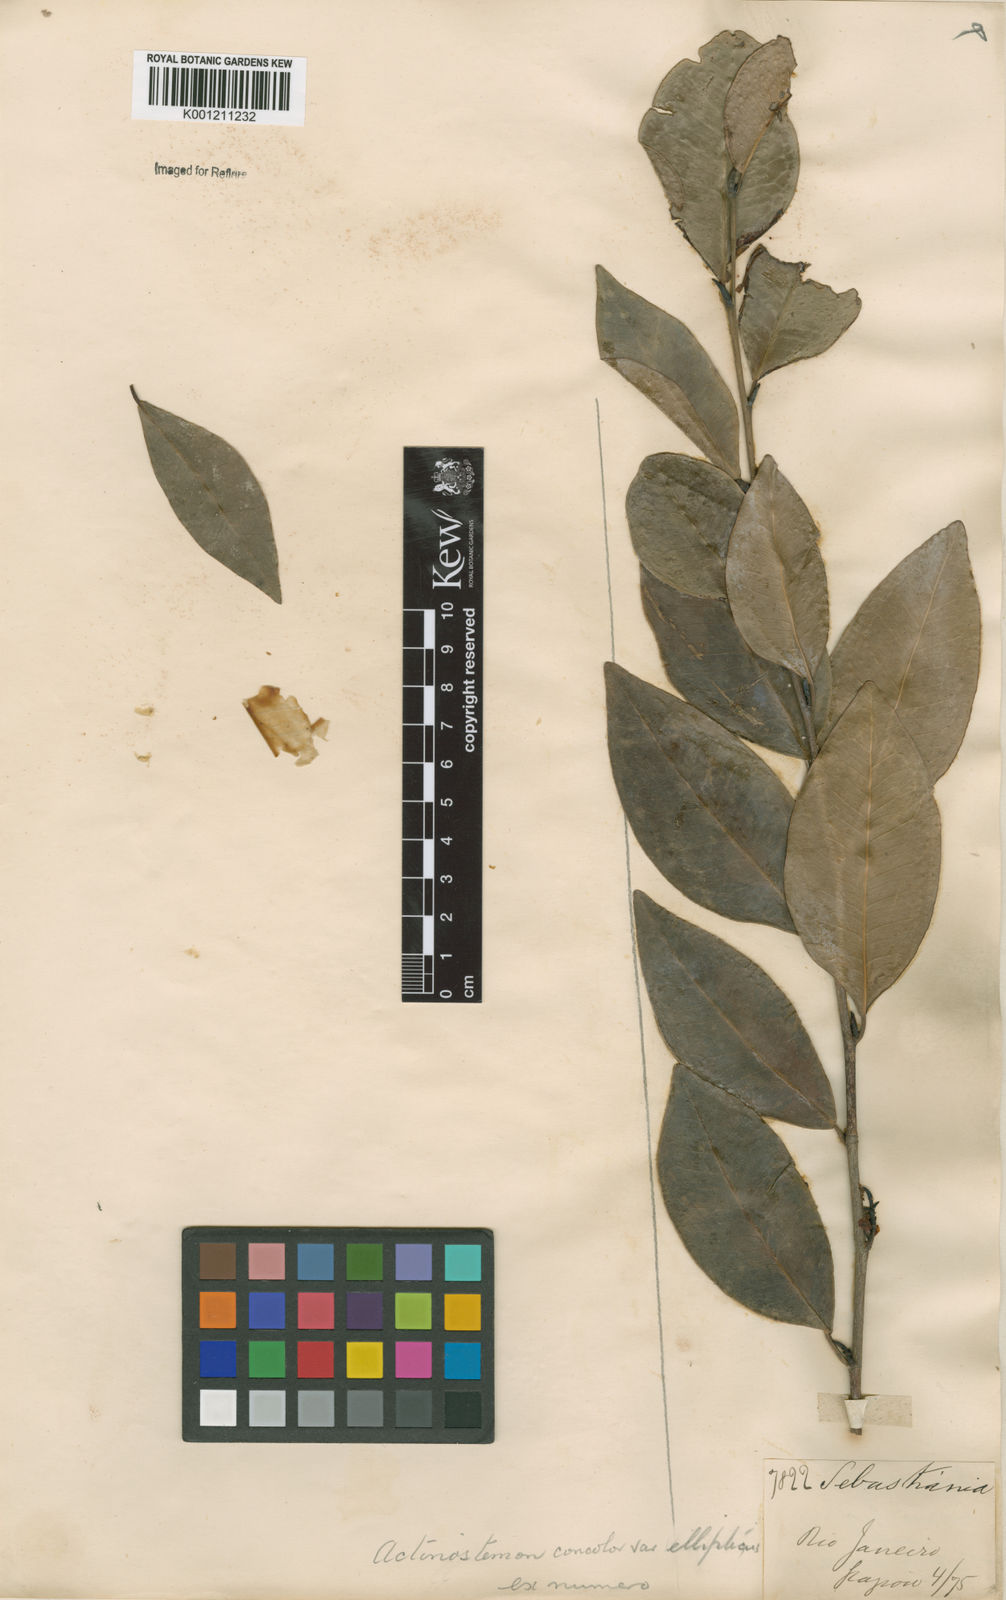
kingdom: Plantae
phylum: Tracheophyta
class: Magnoliopsida
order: Malpighiales
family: Euphorbiaceae
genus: Actinostemon
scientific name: Actinostemon
